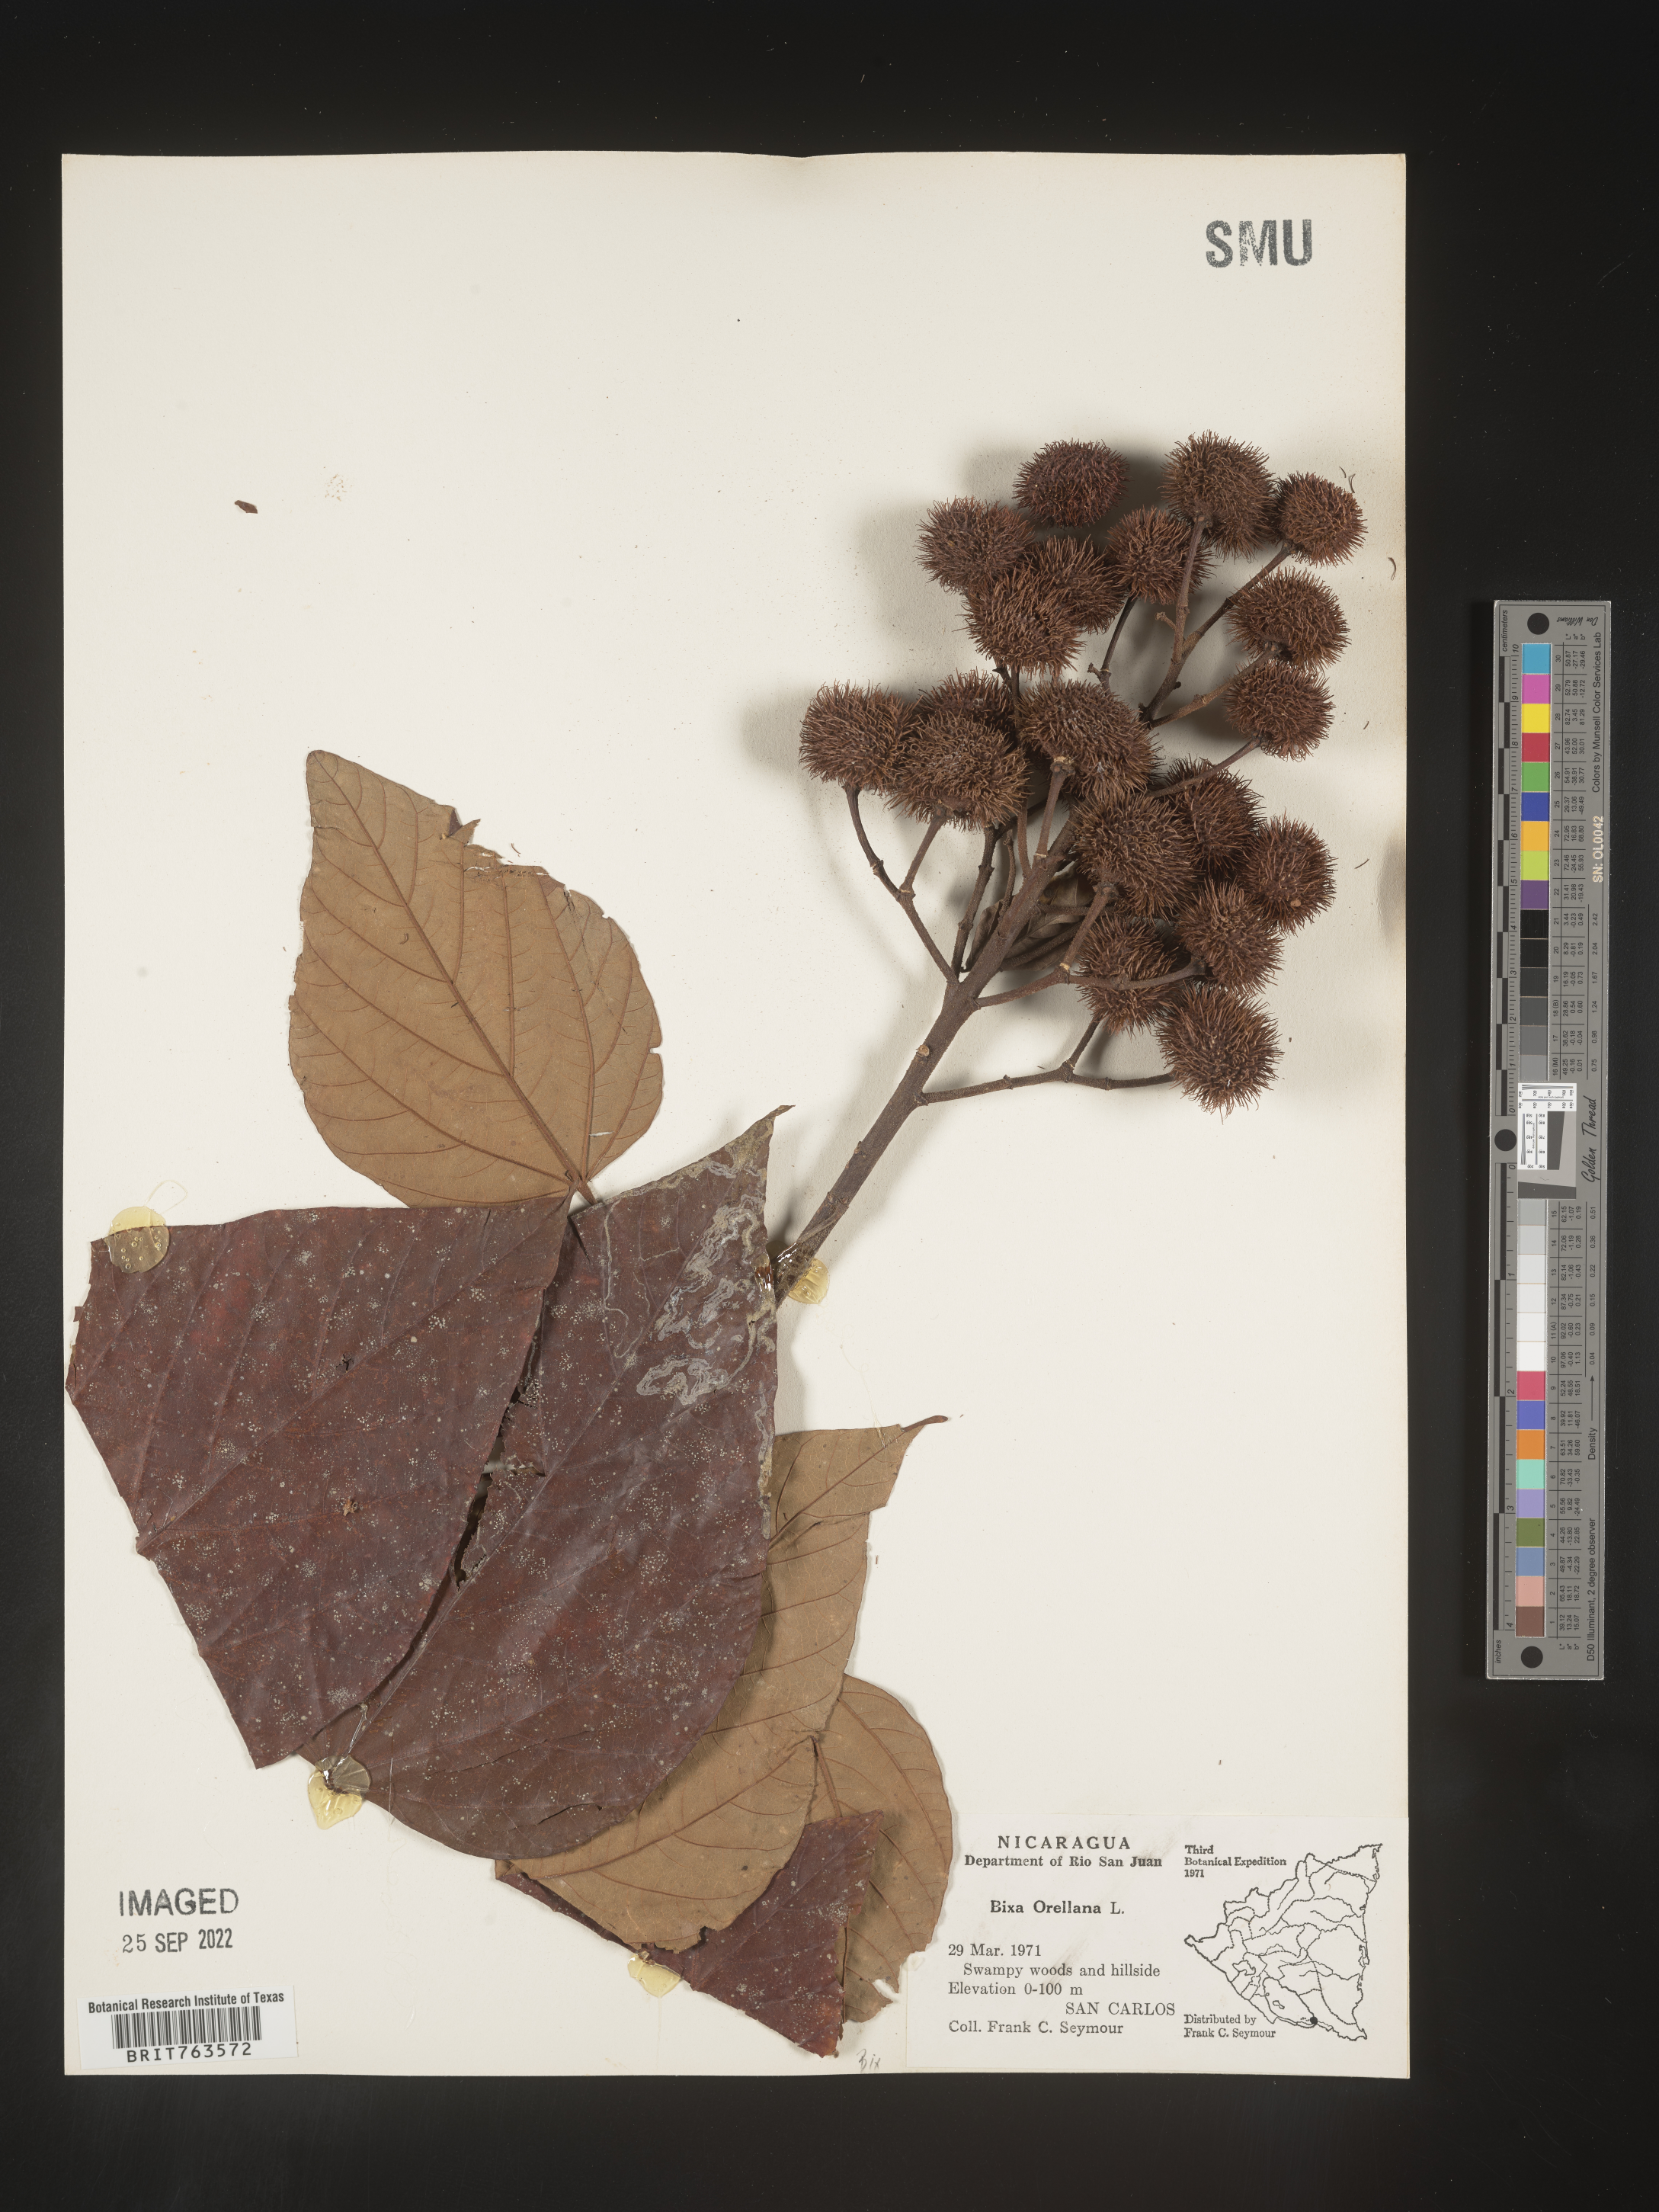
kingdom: Plantae
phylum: Tracheophyta
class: Magnoliopsida
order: Malvales
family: Bixaceae
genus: Bixa
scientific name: Bixa
